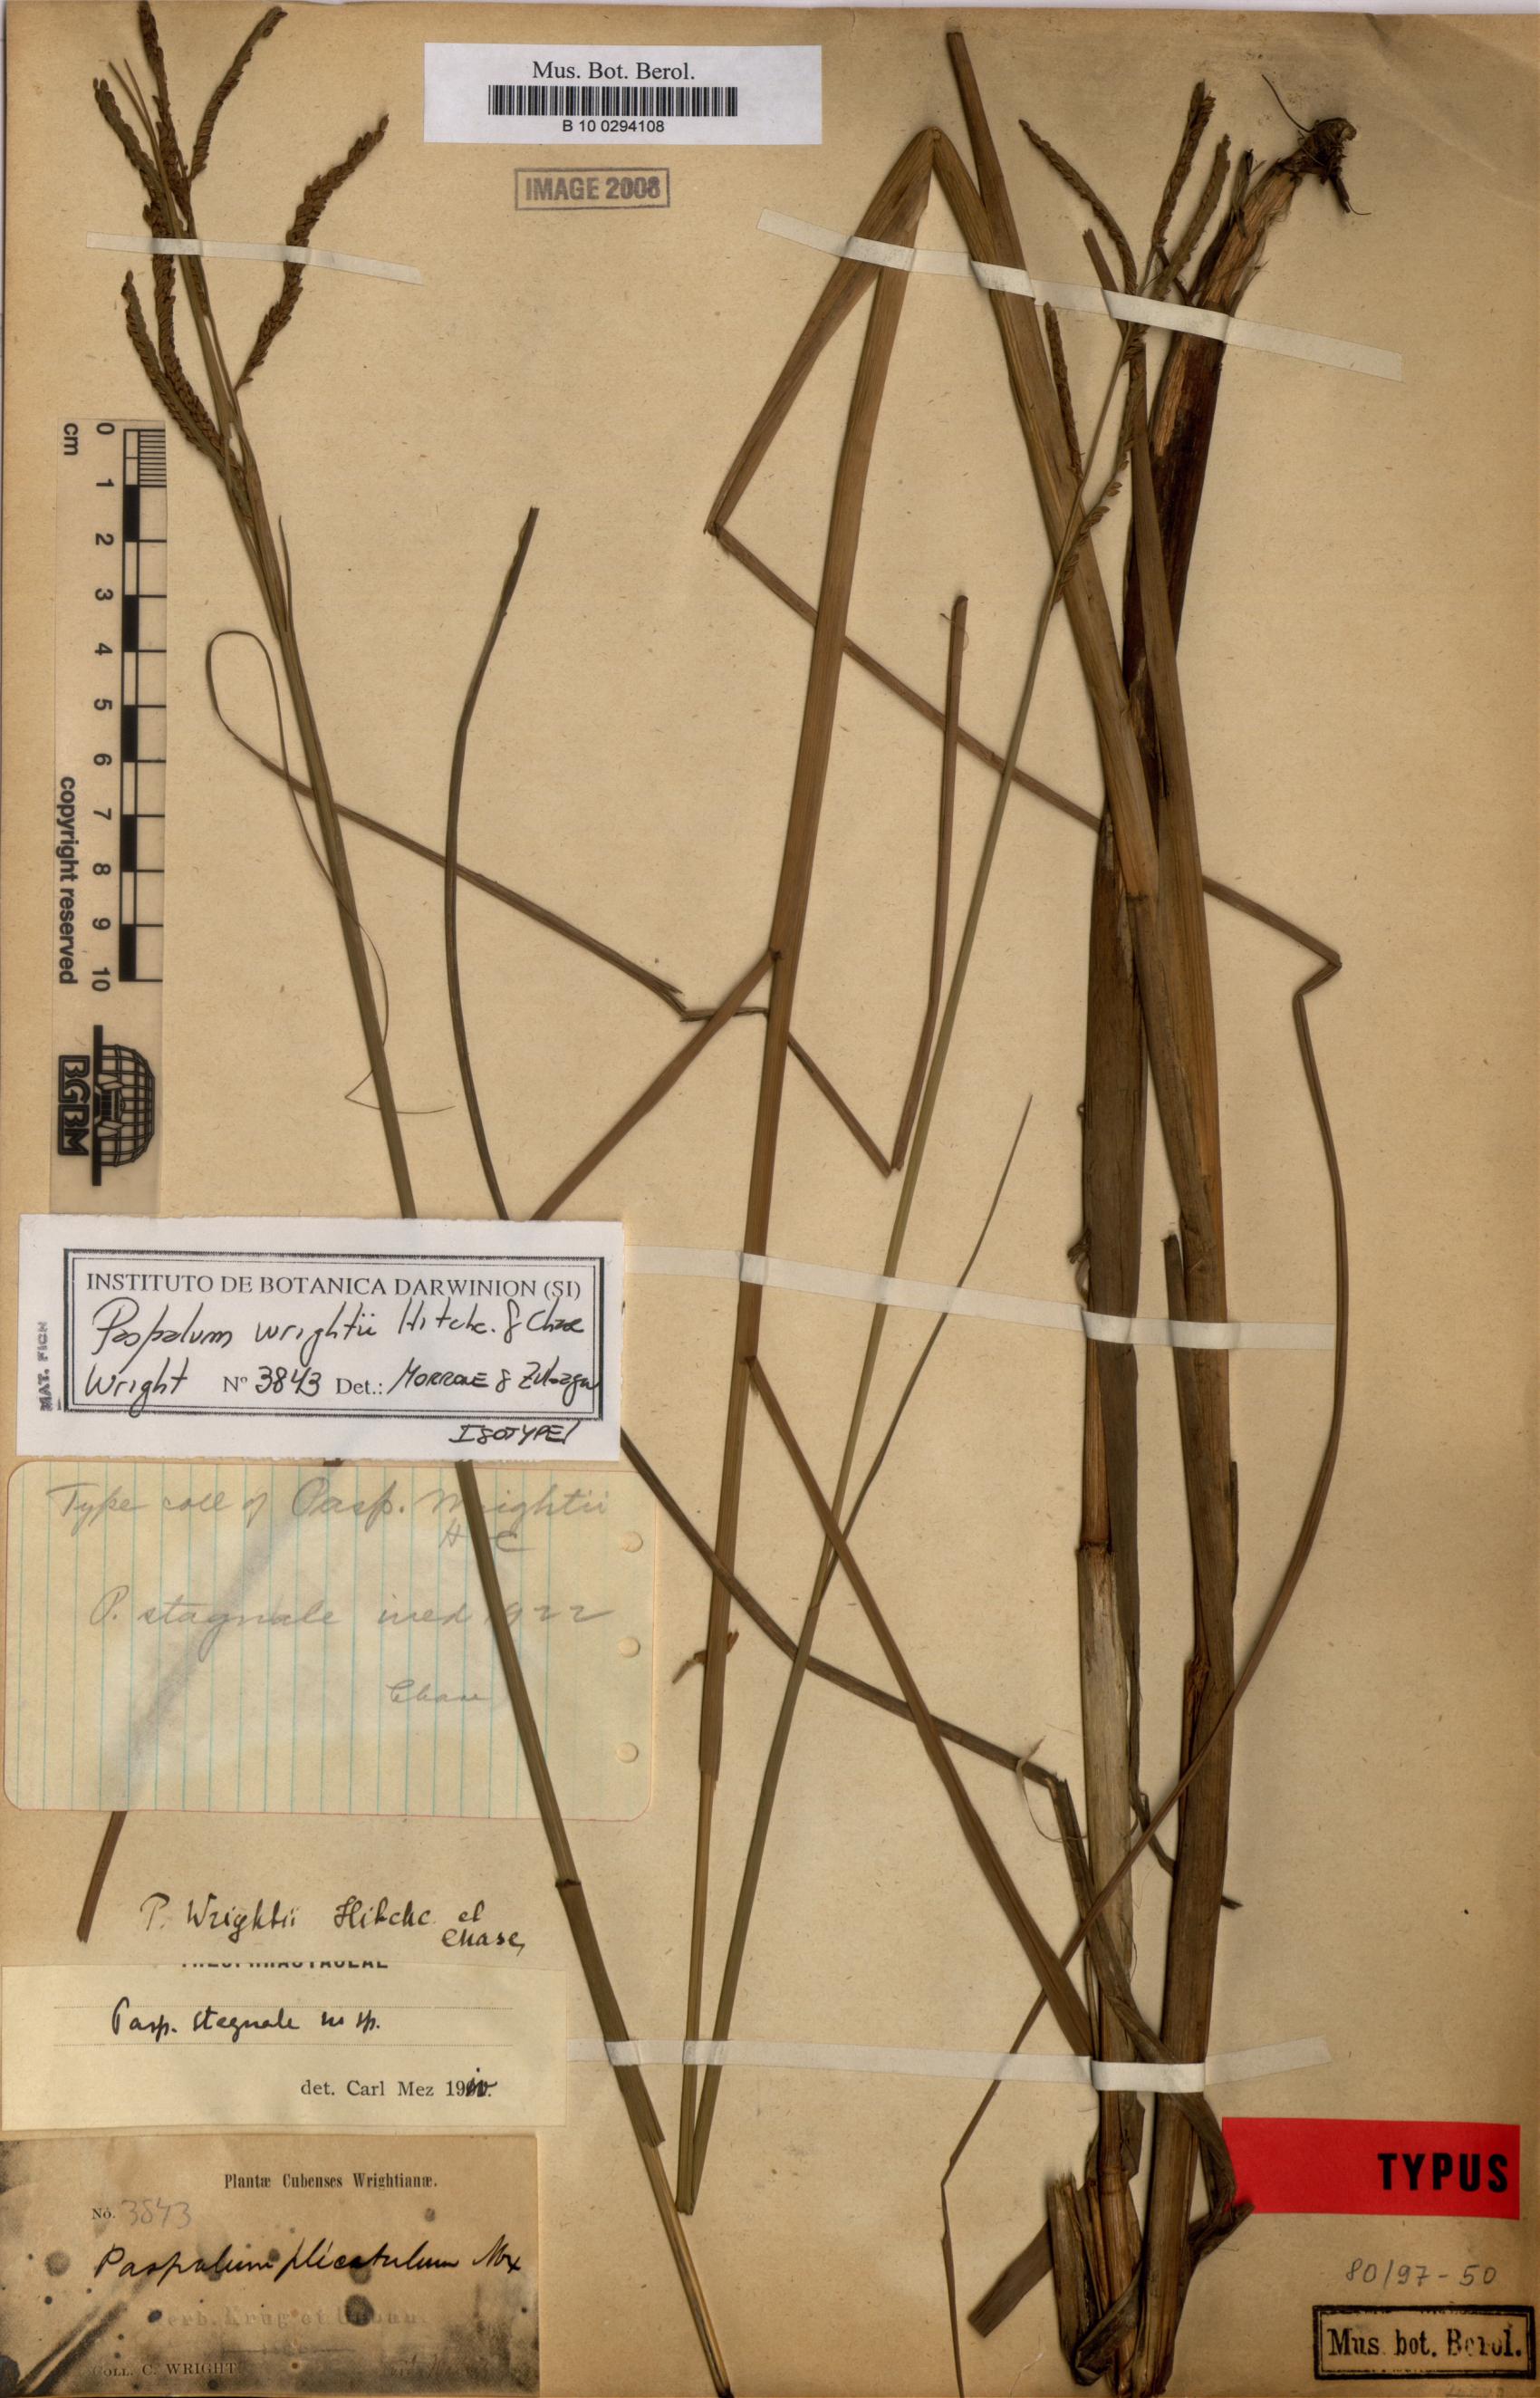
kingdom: Plantae
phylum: Tracheophyta
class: Liliopsida
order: Poales
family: Poaceae
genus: Paspalum
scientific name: Paspalum wrightii
